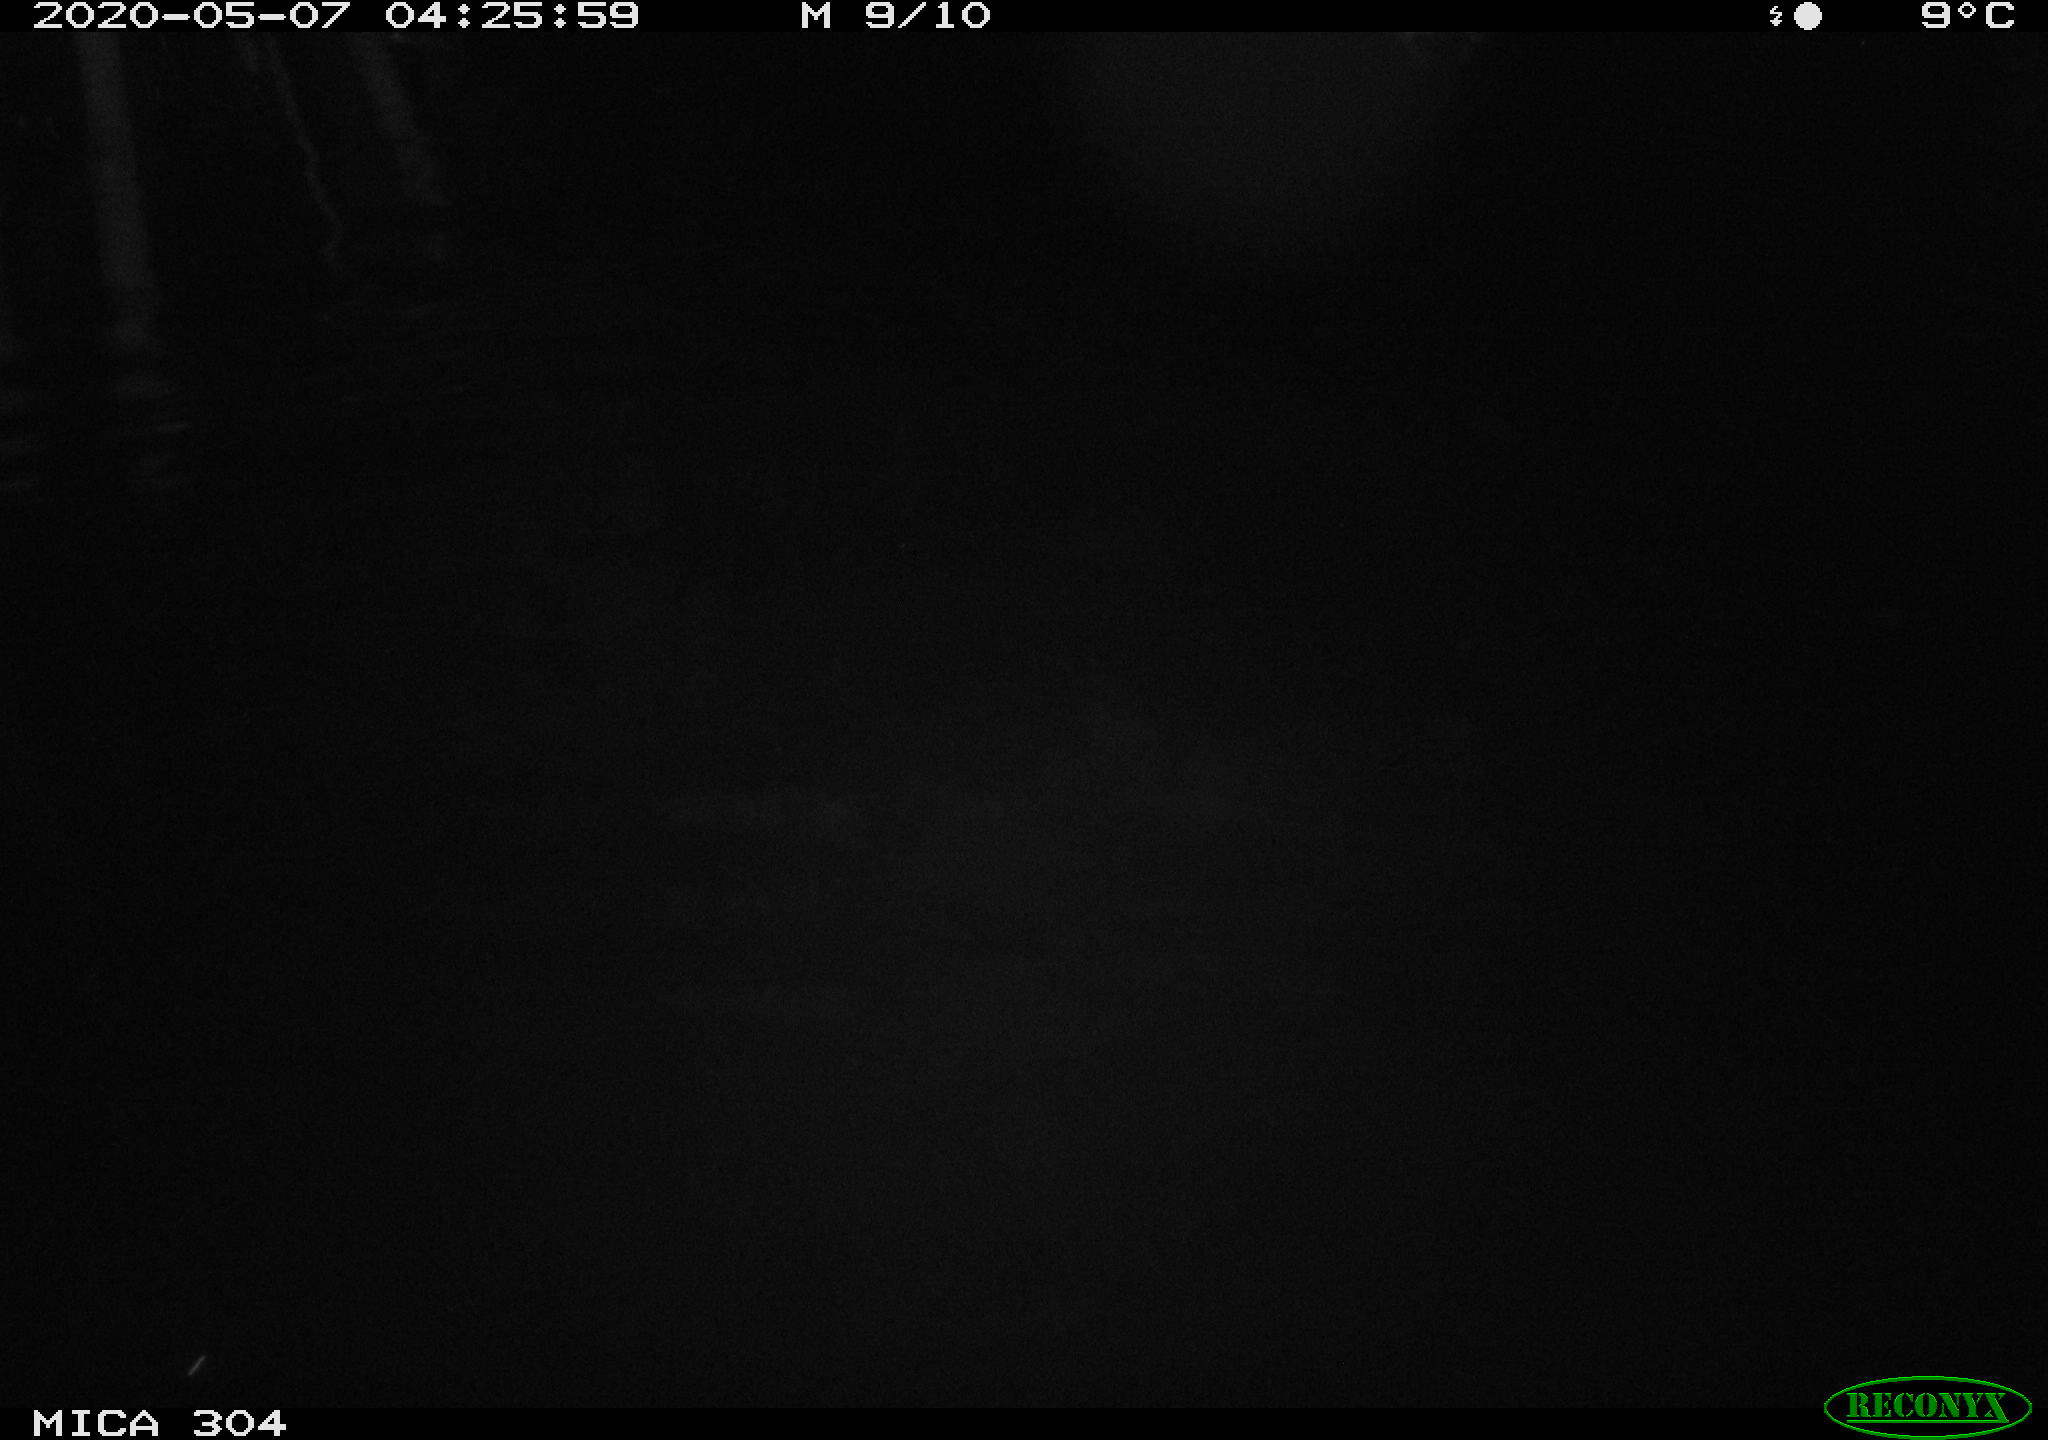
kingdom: Animalia
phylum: Chordata
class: Aves
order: Anseriformes
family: Anatidae
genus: Anas
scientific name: Anas platyrhynchos
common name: Mallard
